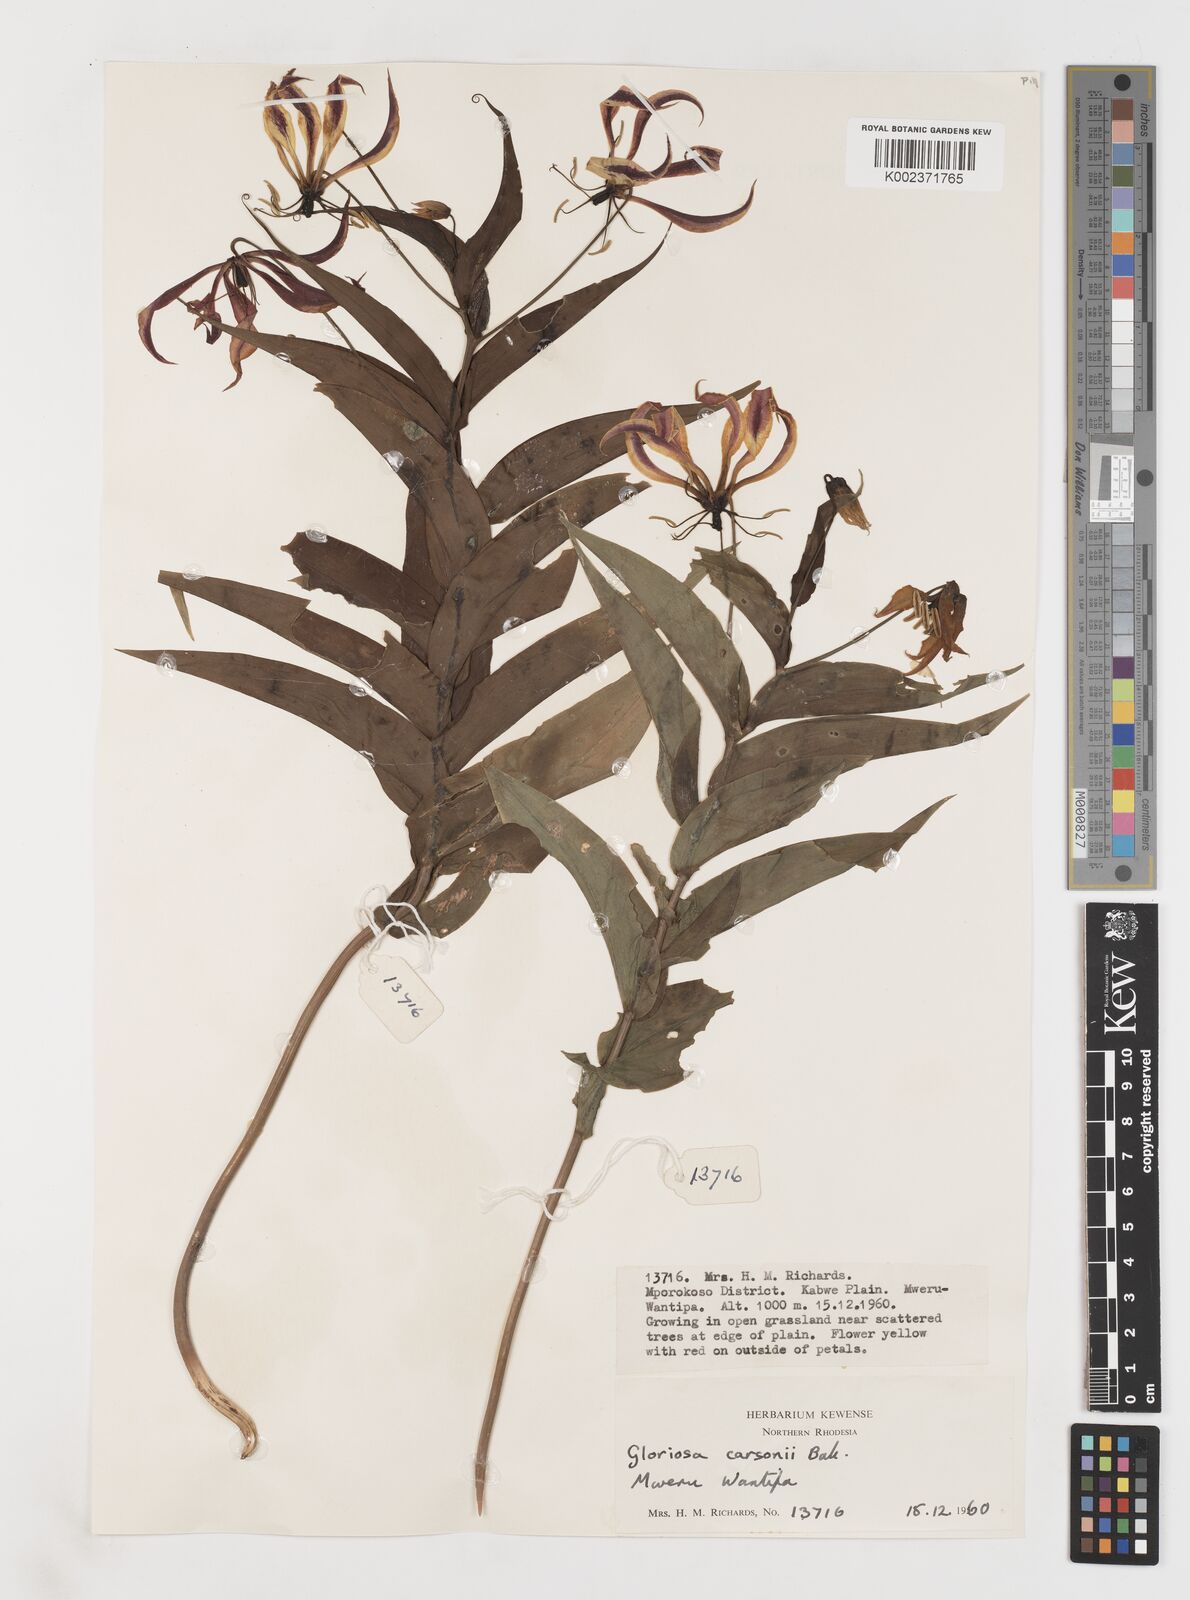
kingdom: Plantae
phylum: Tracheophyta
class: Liliopsida
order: Liliales
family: Colchicaceae
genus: Gloriosa
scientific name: Gloriosa carsonii
